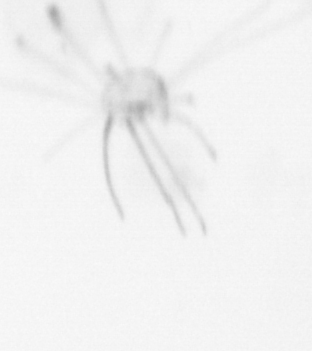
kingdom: Animalia
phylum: Cnidaria
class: Hydrozoa
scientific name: Hydrozoa
